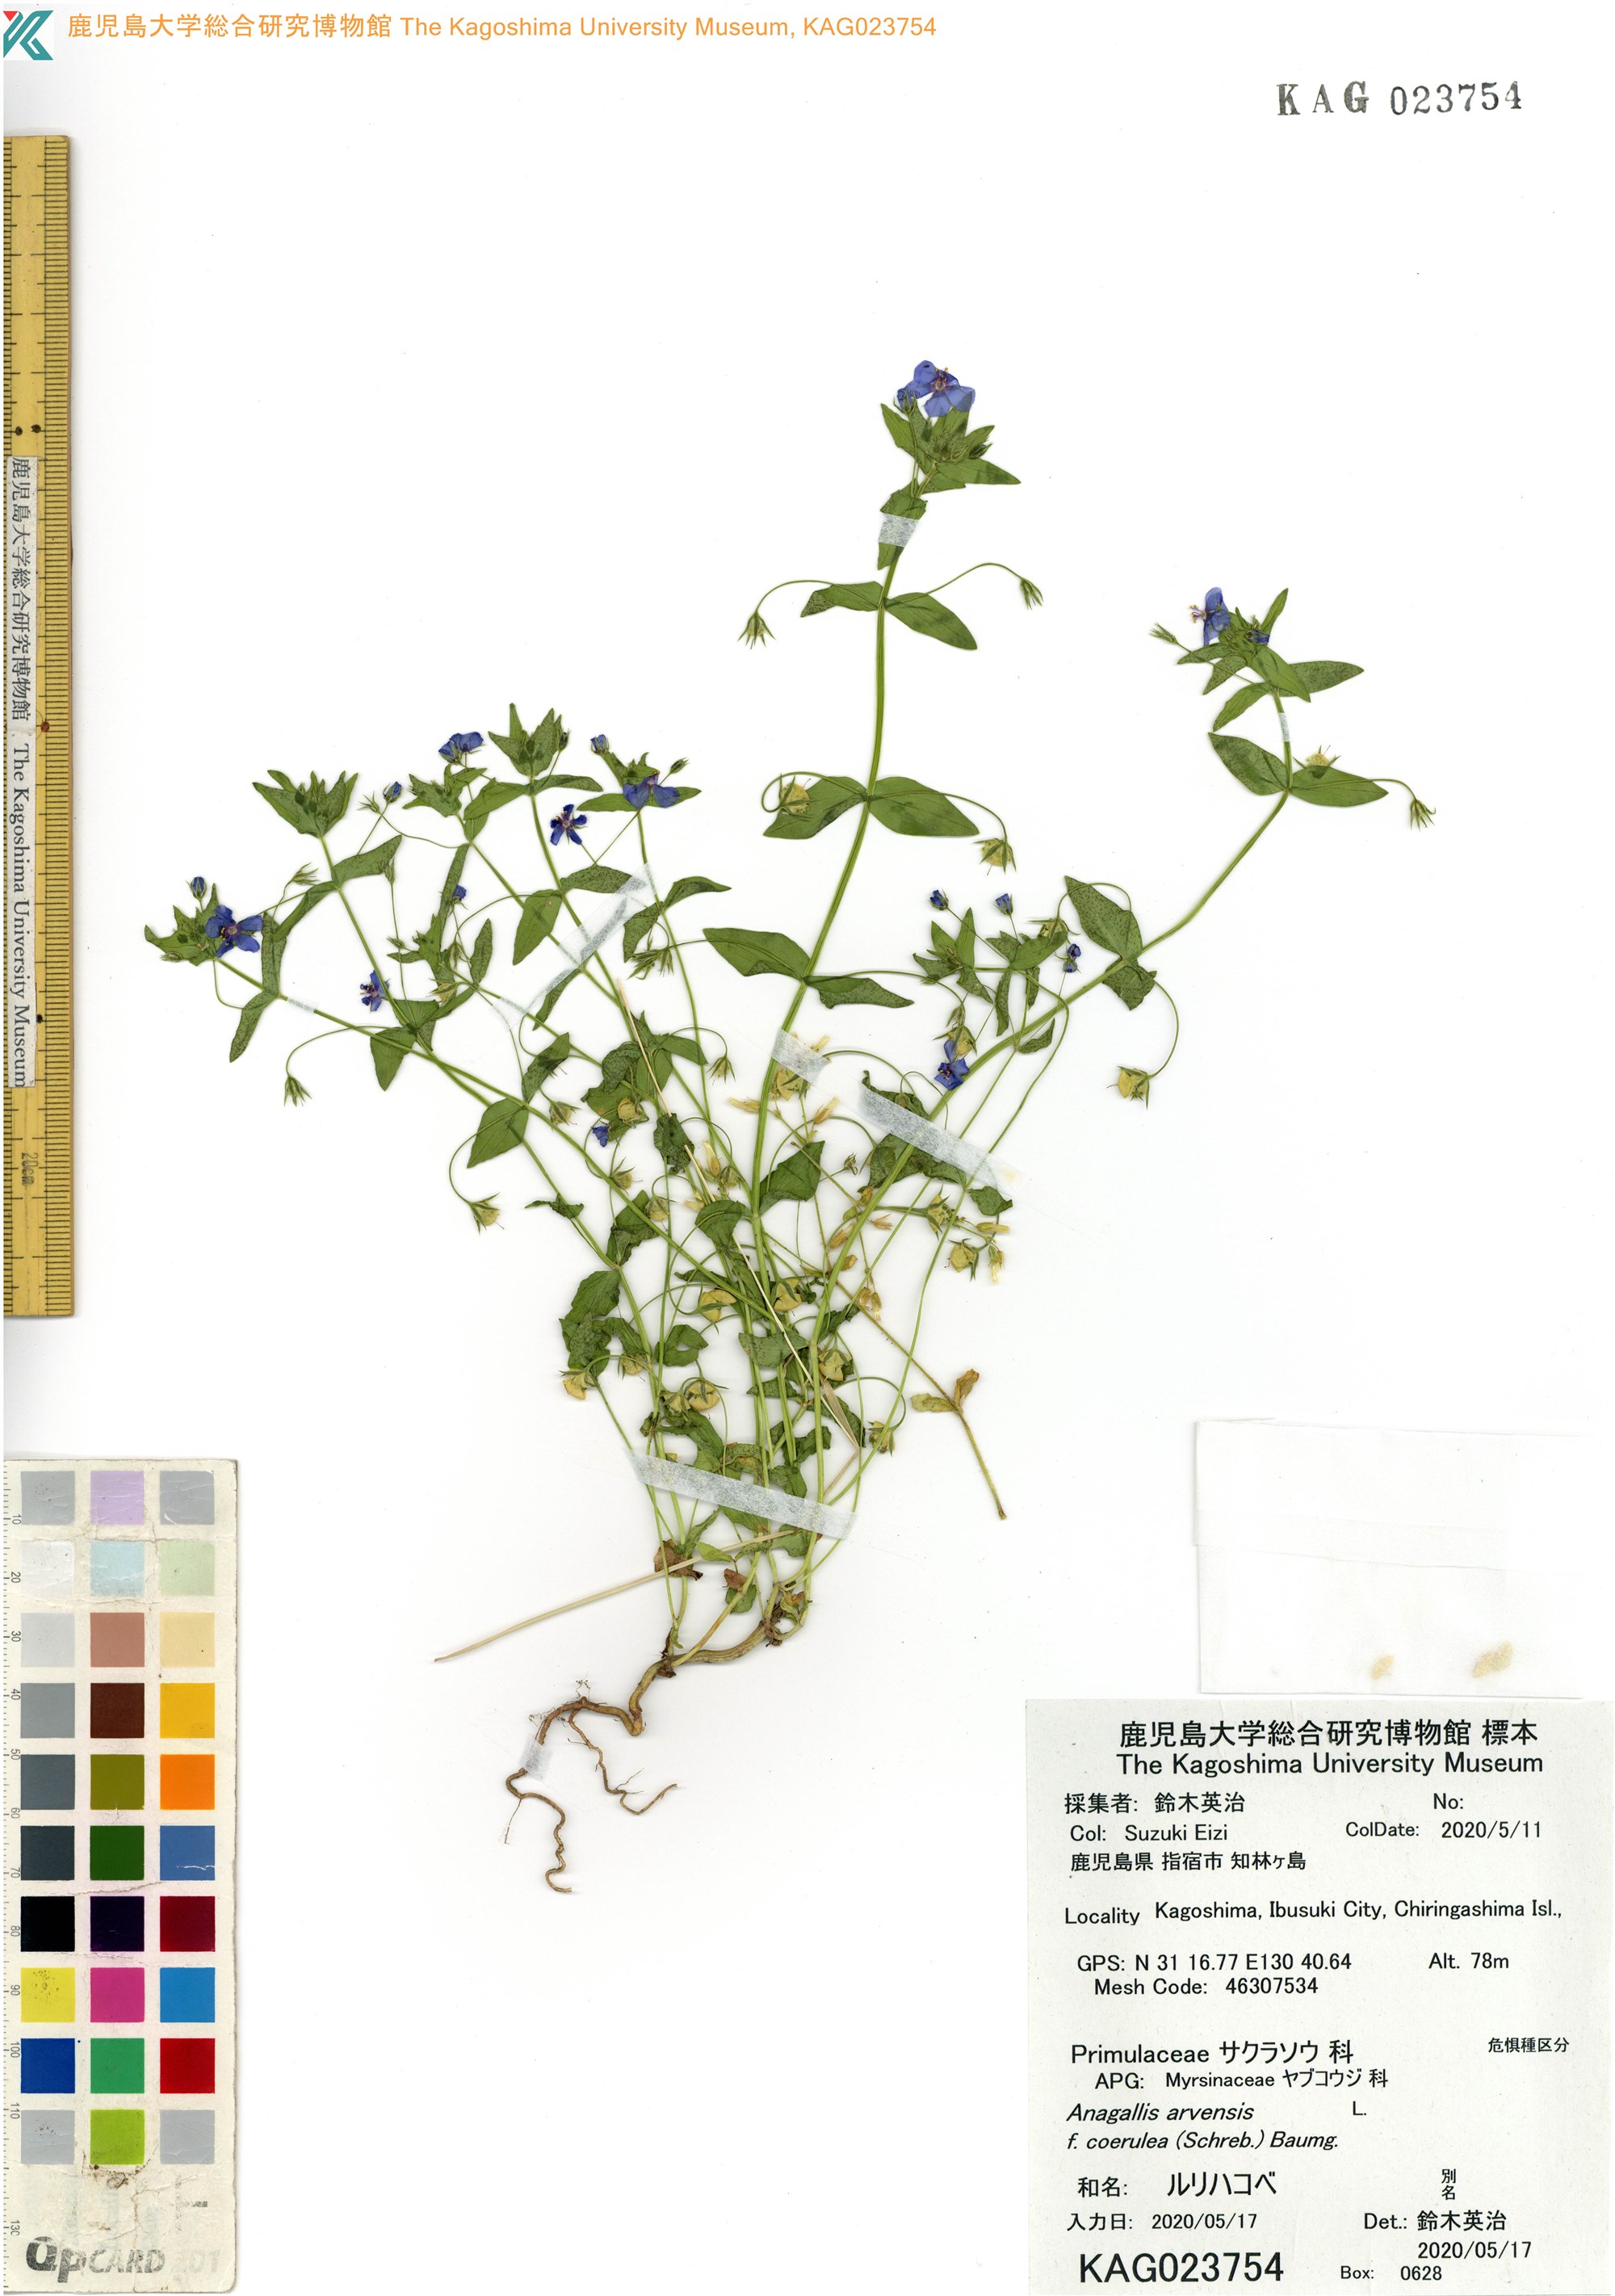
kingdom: Plantae
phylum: Tracheophyta
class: Magnoliopsida
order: Ericales
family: Primulaceae
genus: Lysimachia
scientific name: Lysimachia arvensis
